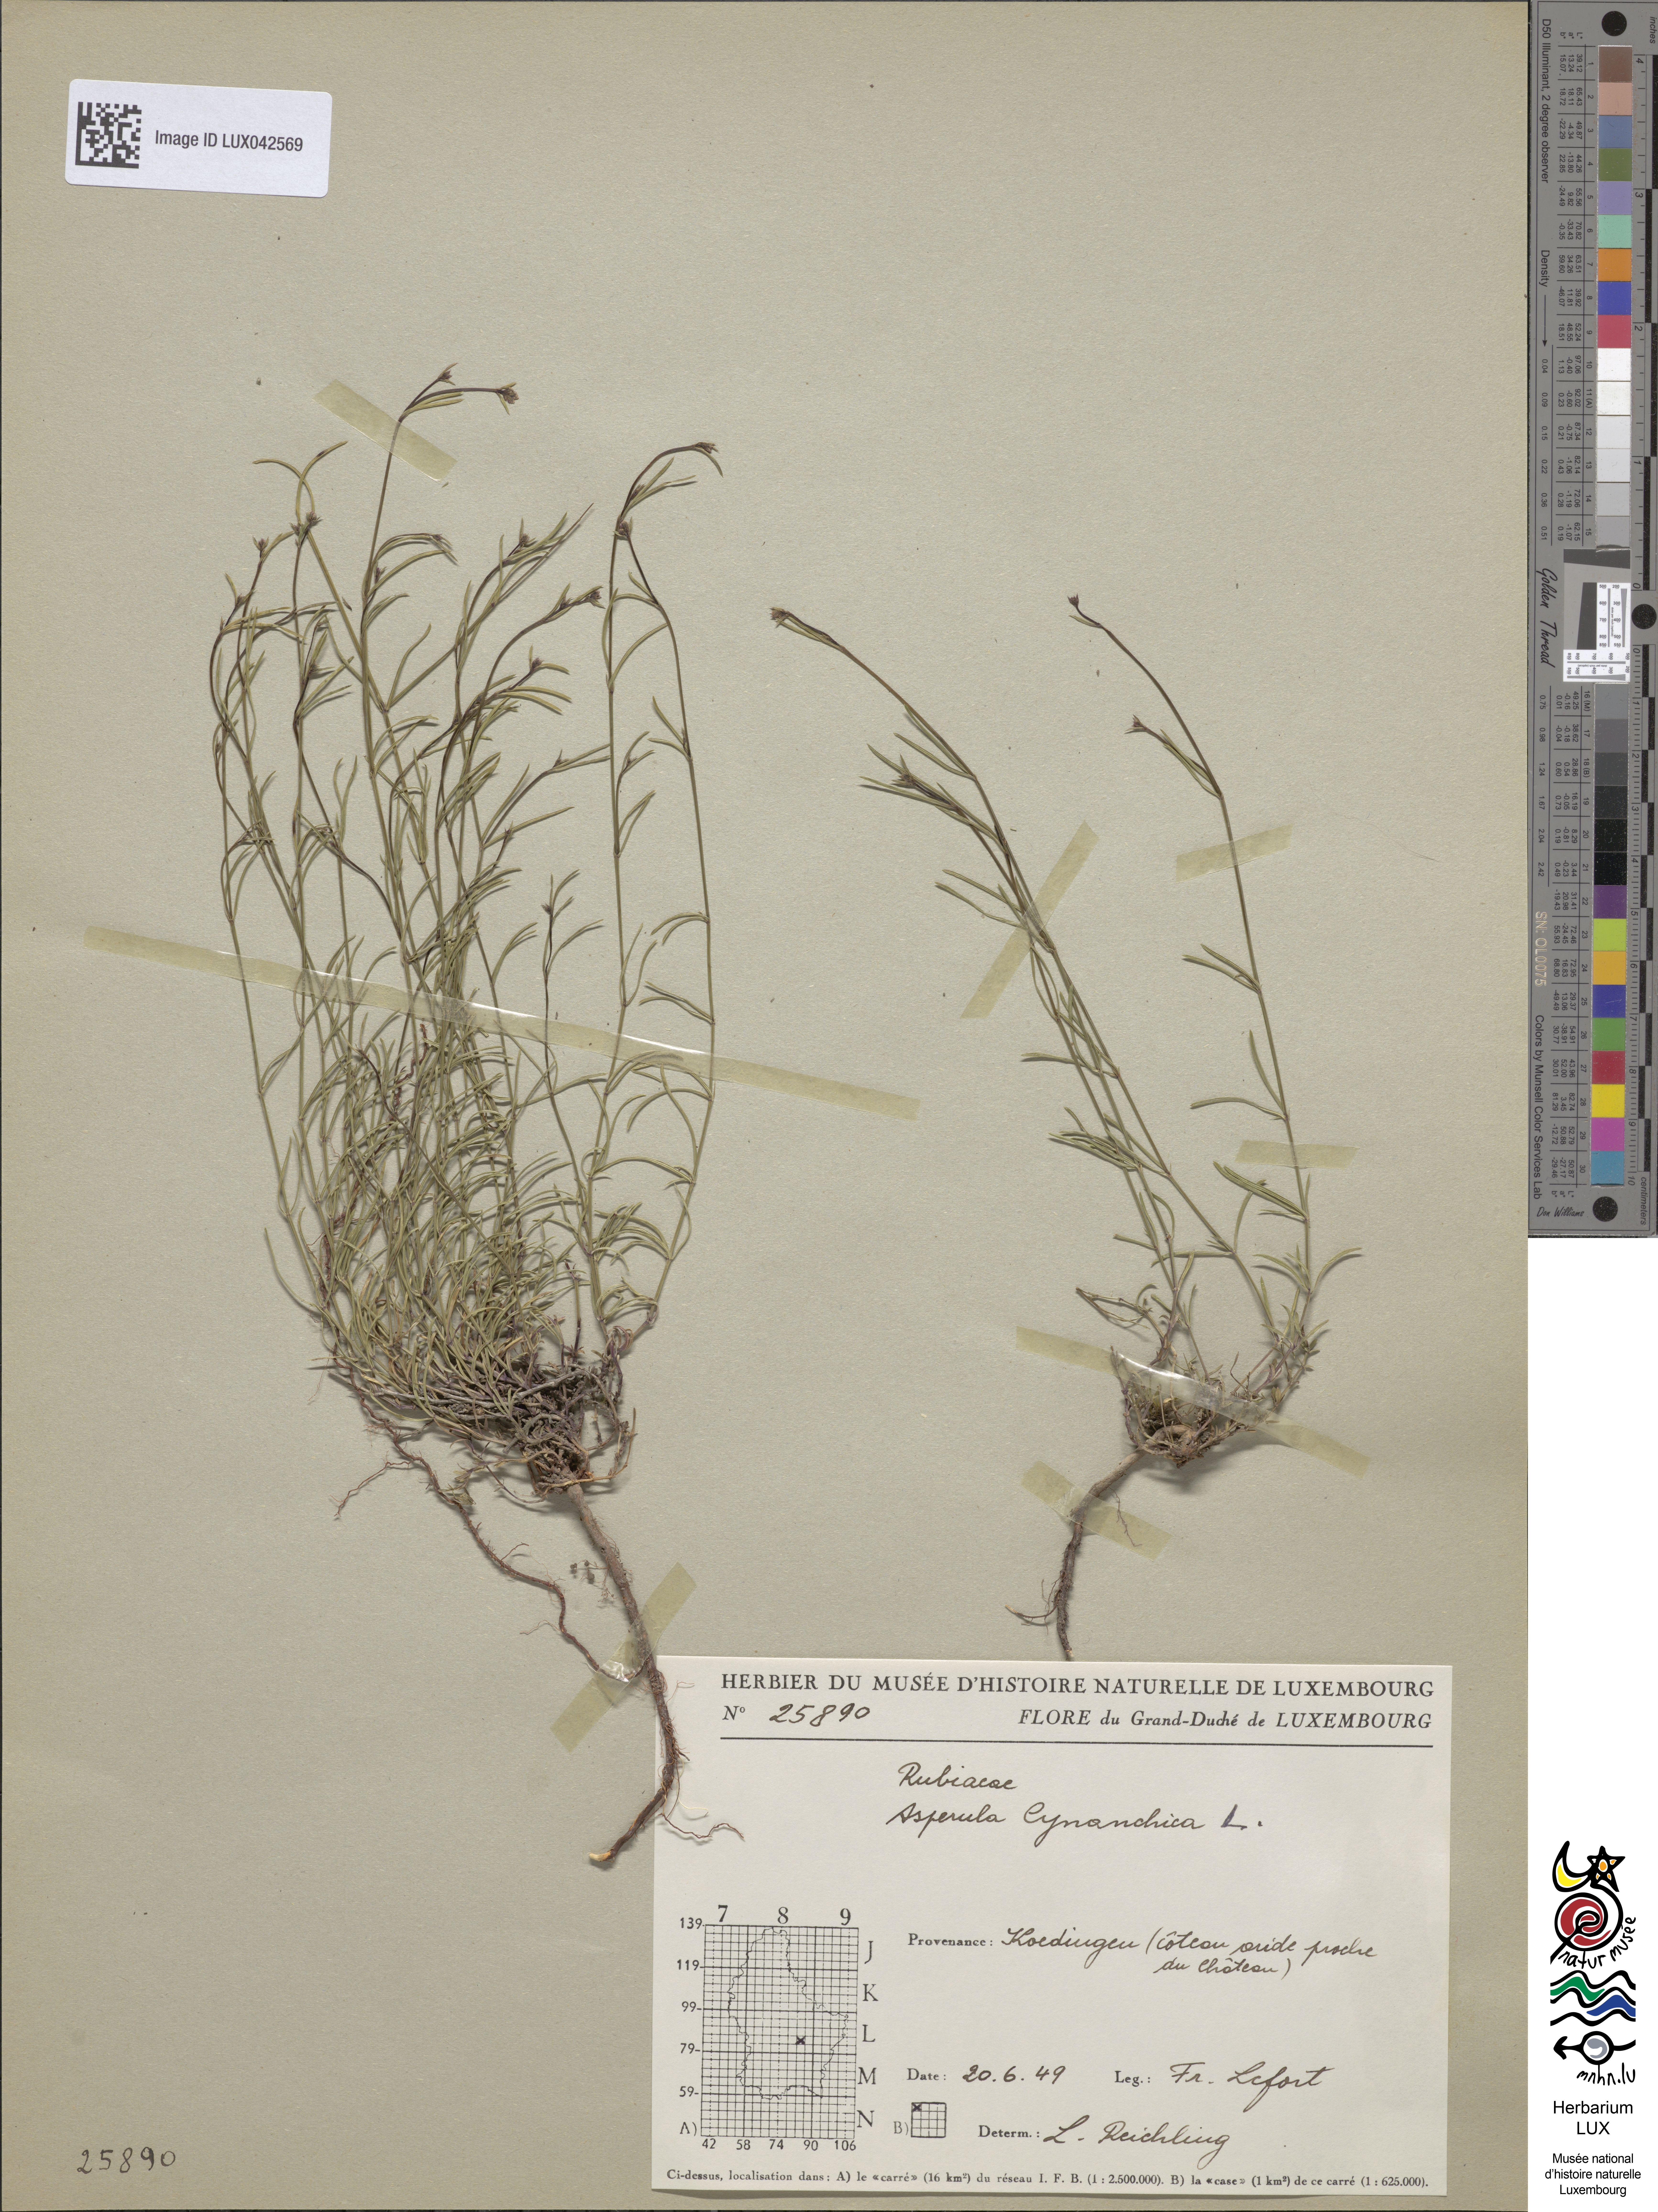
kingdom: Plantae
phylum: Tracheophyta
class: Magnoliopsida
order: Gentianales
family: Rubiaceae
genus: Cynanchica
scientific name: Cynanchica pyrenaica
